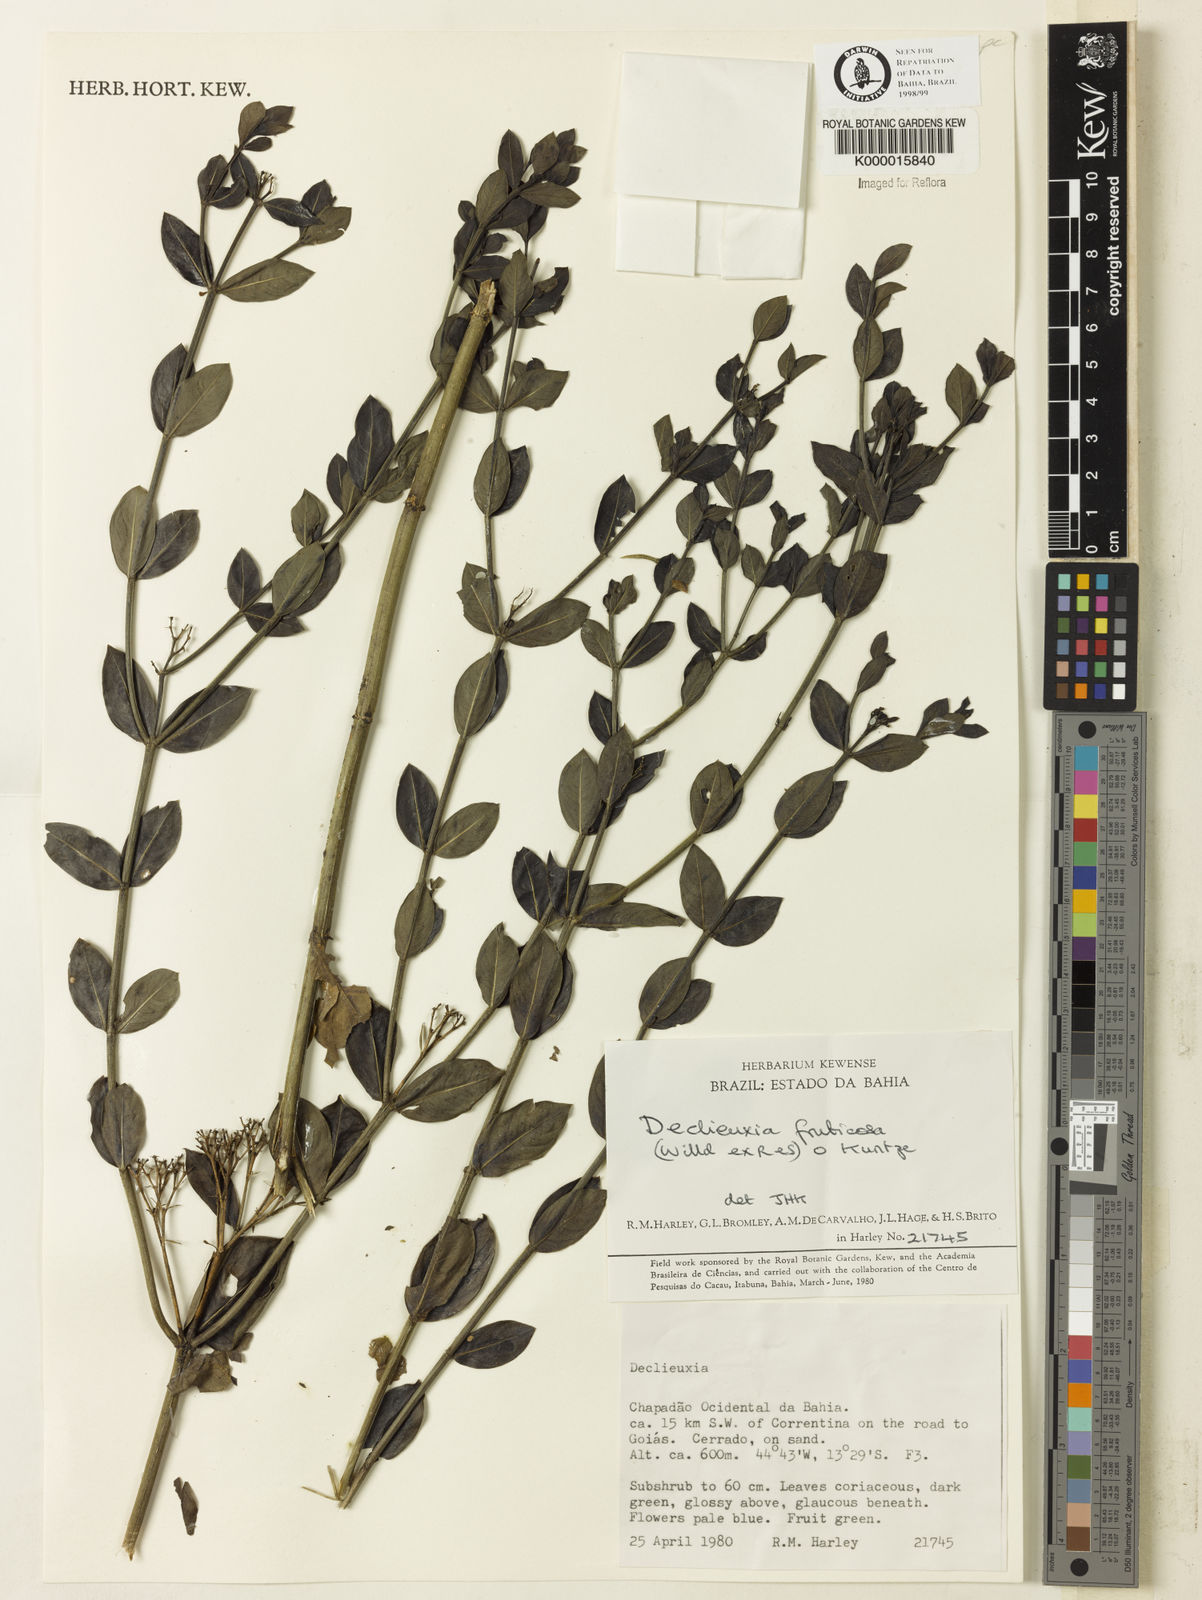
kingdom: Plantae
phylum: Tracheophyta
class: Magnoliopsida
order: Gentianales
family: Rubiaceae
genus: Declieuxia
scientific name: Declieuxia fruticosa
